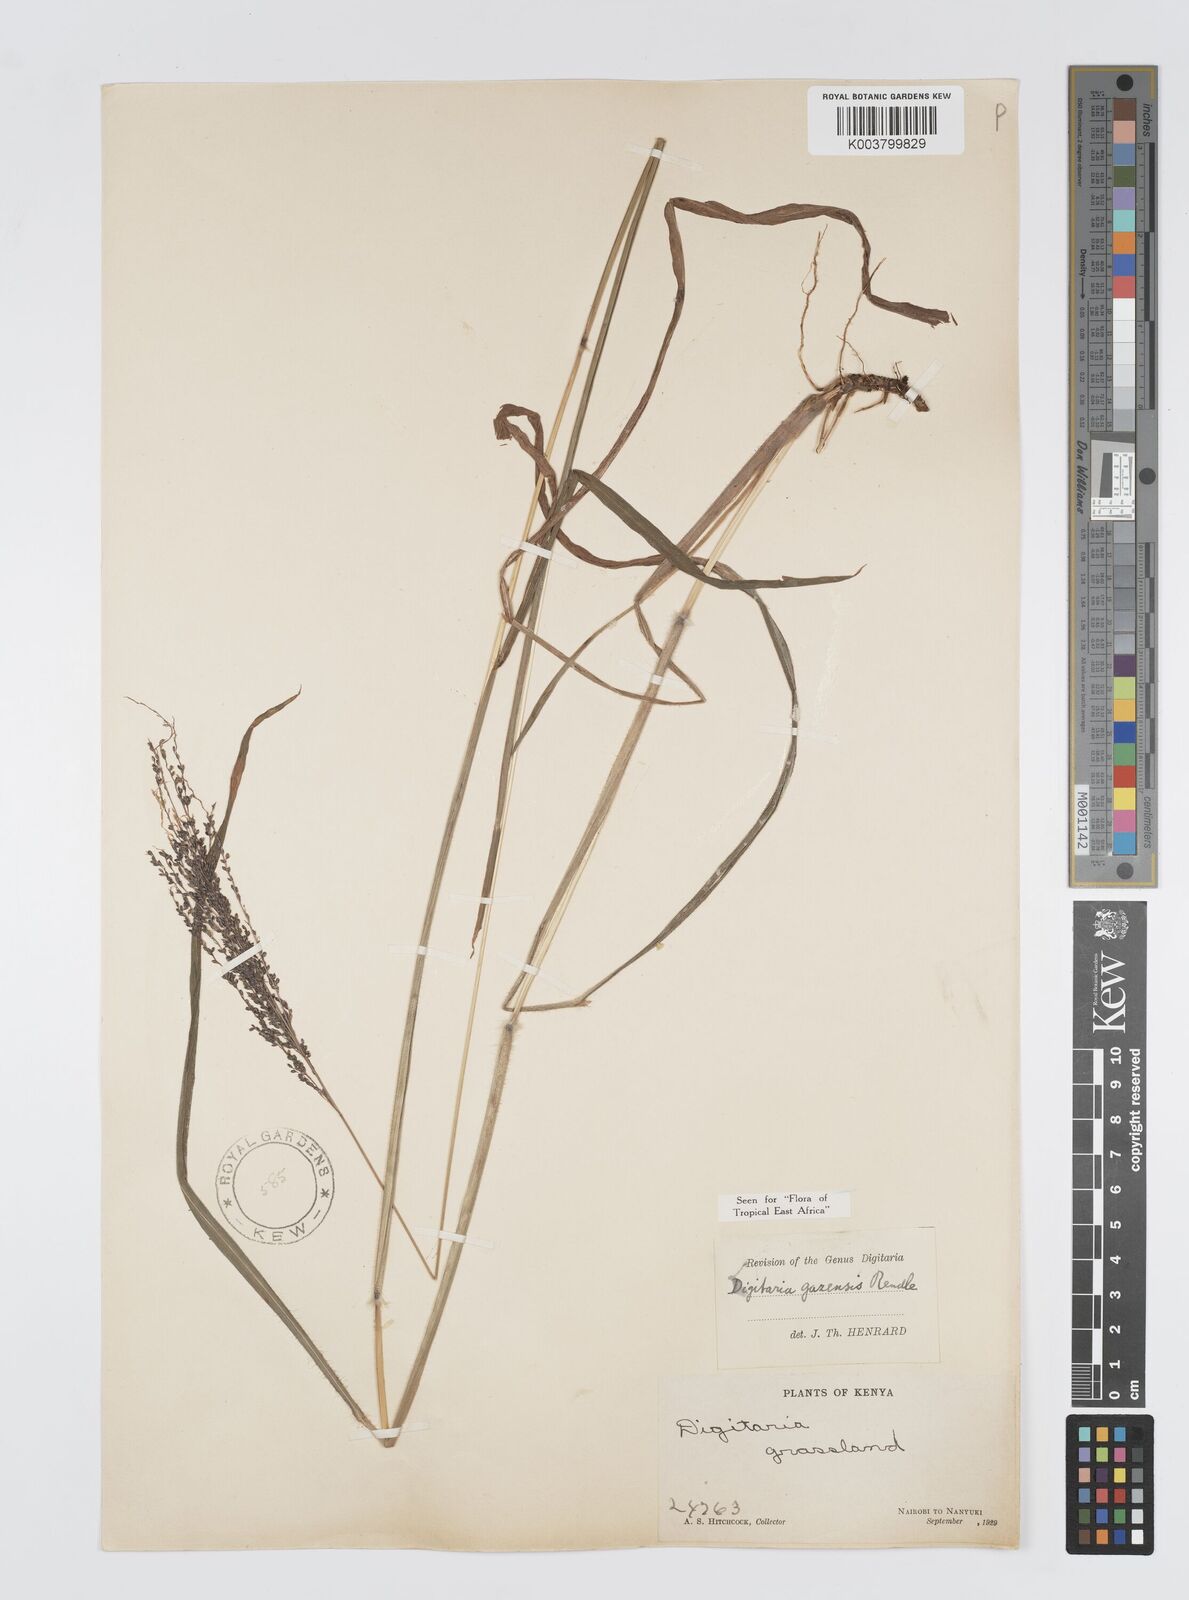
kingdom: Plantae
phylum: Tracheophyta
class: Liliopsida
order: Poales
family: Poaceae
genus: Digitaria
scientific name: Digitaria gazensis
